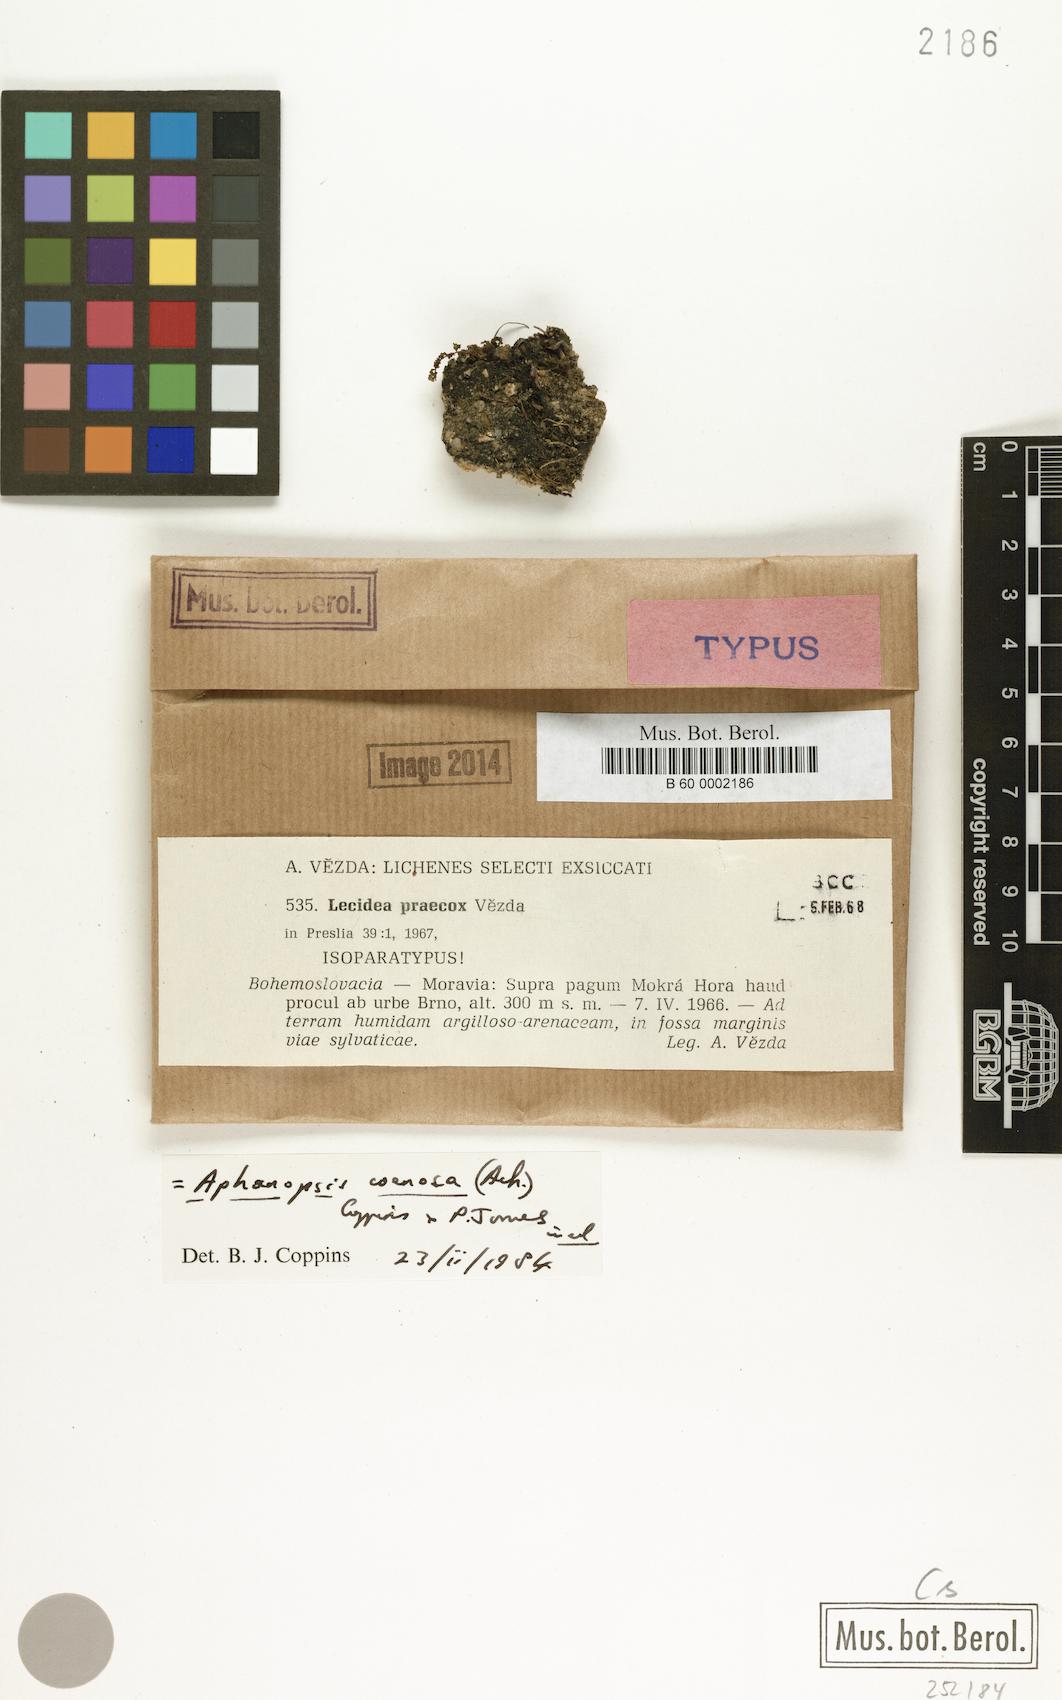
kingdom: Fungi
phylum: Ascomycota
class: Lecanoromycetes
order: Lecanorales
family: Aphanopsidaceae
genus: Aphanopsis
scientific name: Aphanopsis coenosa
